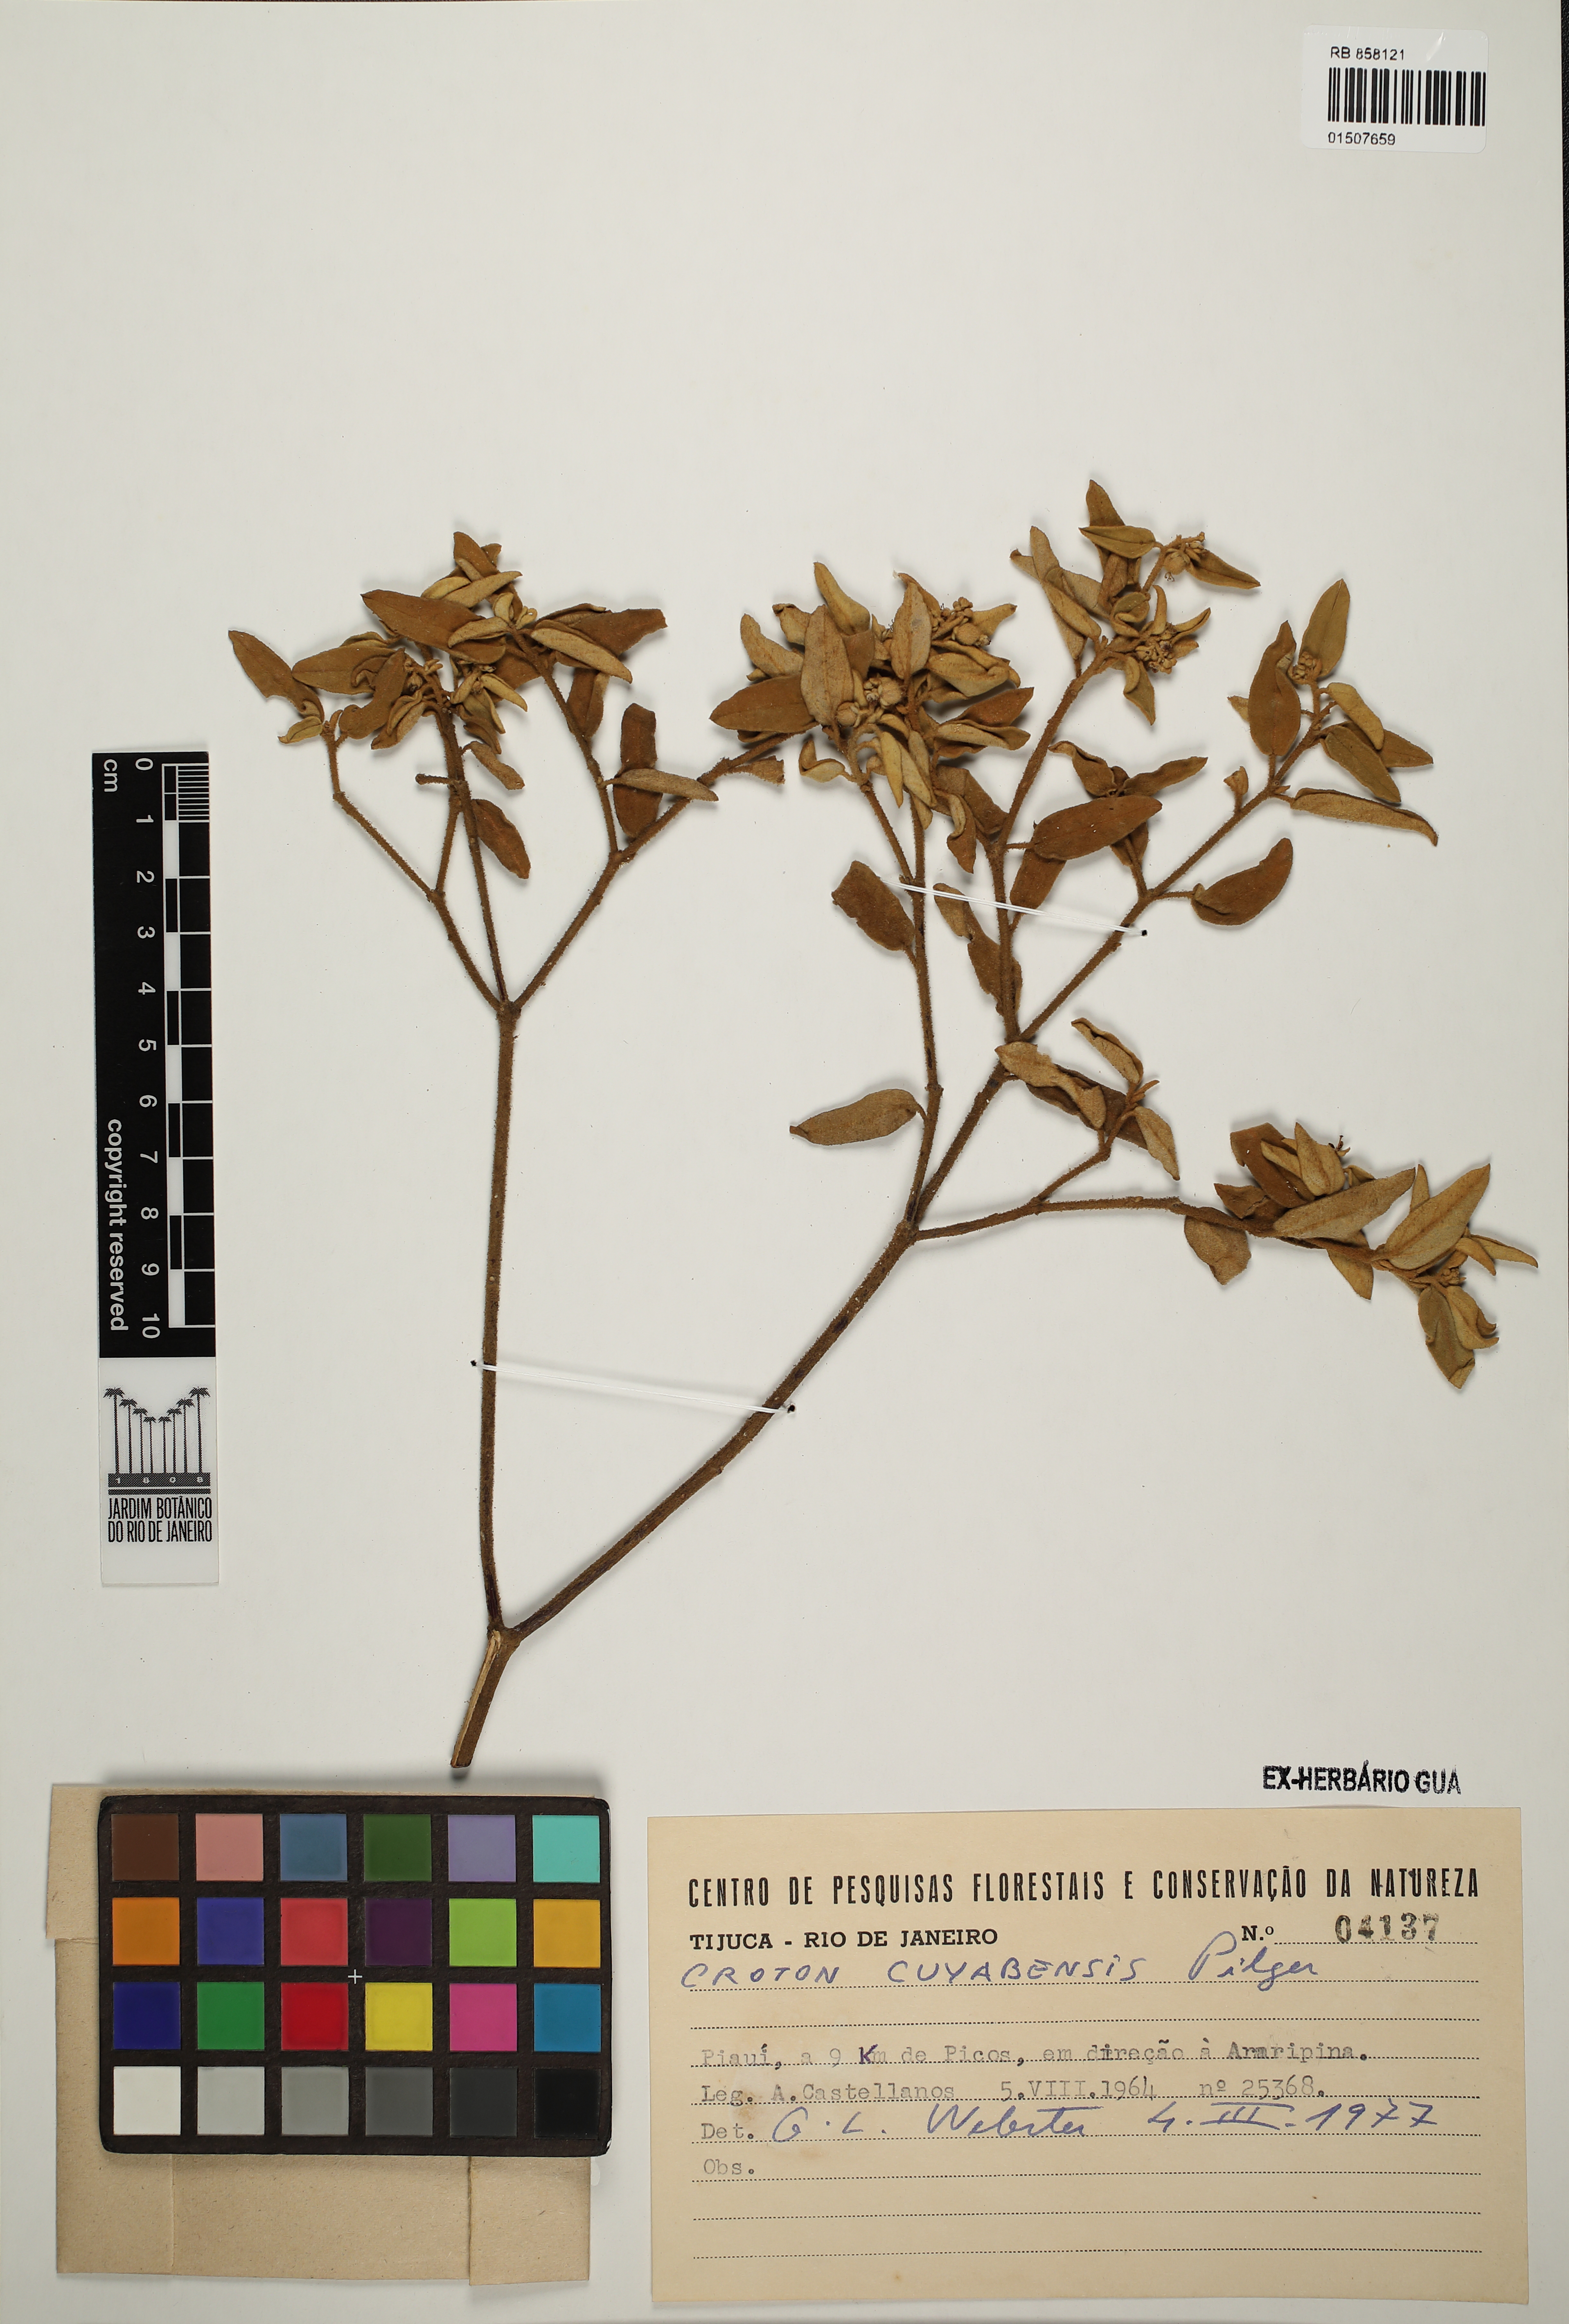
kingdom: Plantae
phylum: Tracheophyta
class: Magnoliopsida
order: Malpighiales
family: Euphorbiaceae
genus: Croton
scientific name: Croton pedicellatus
